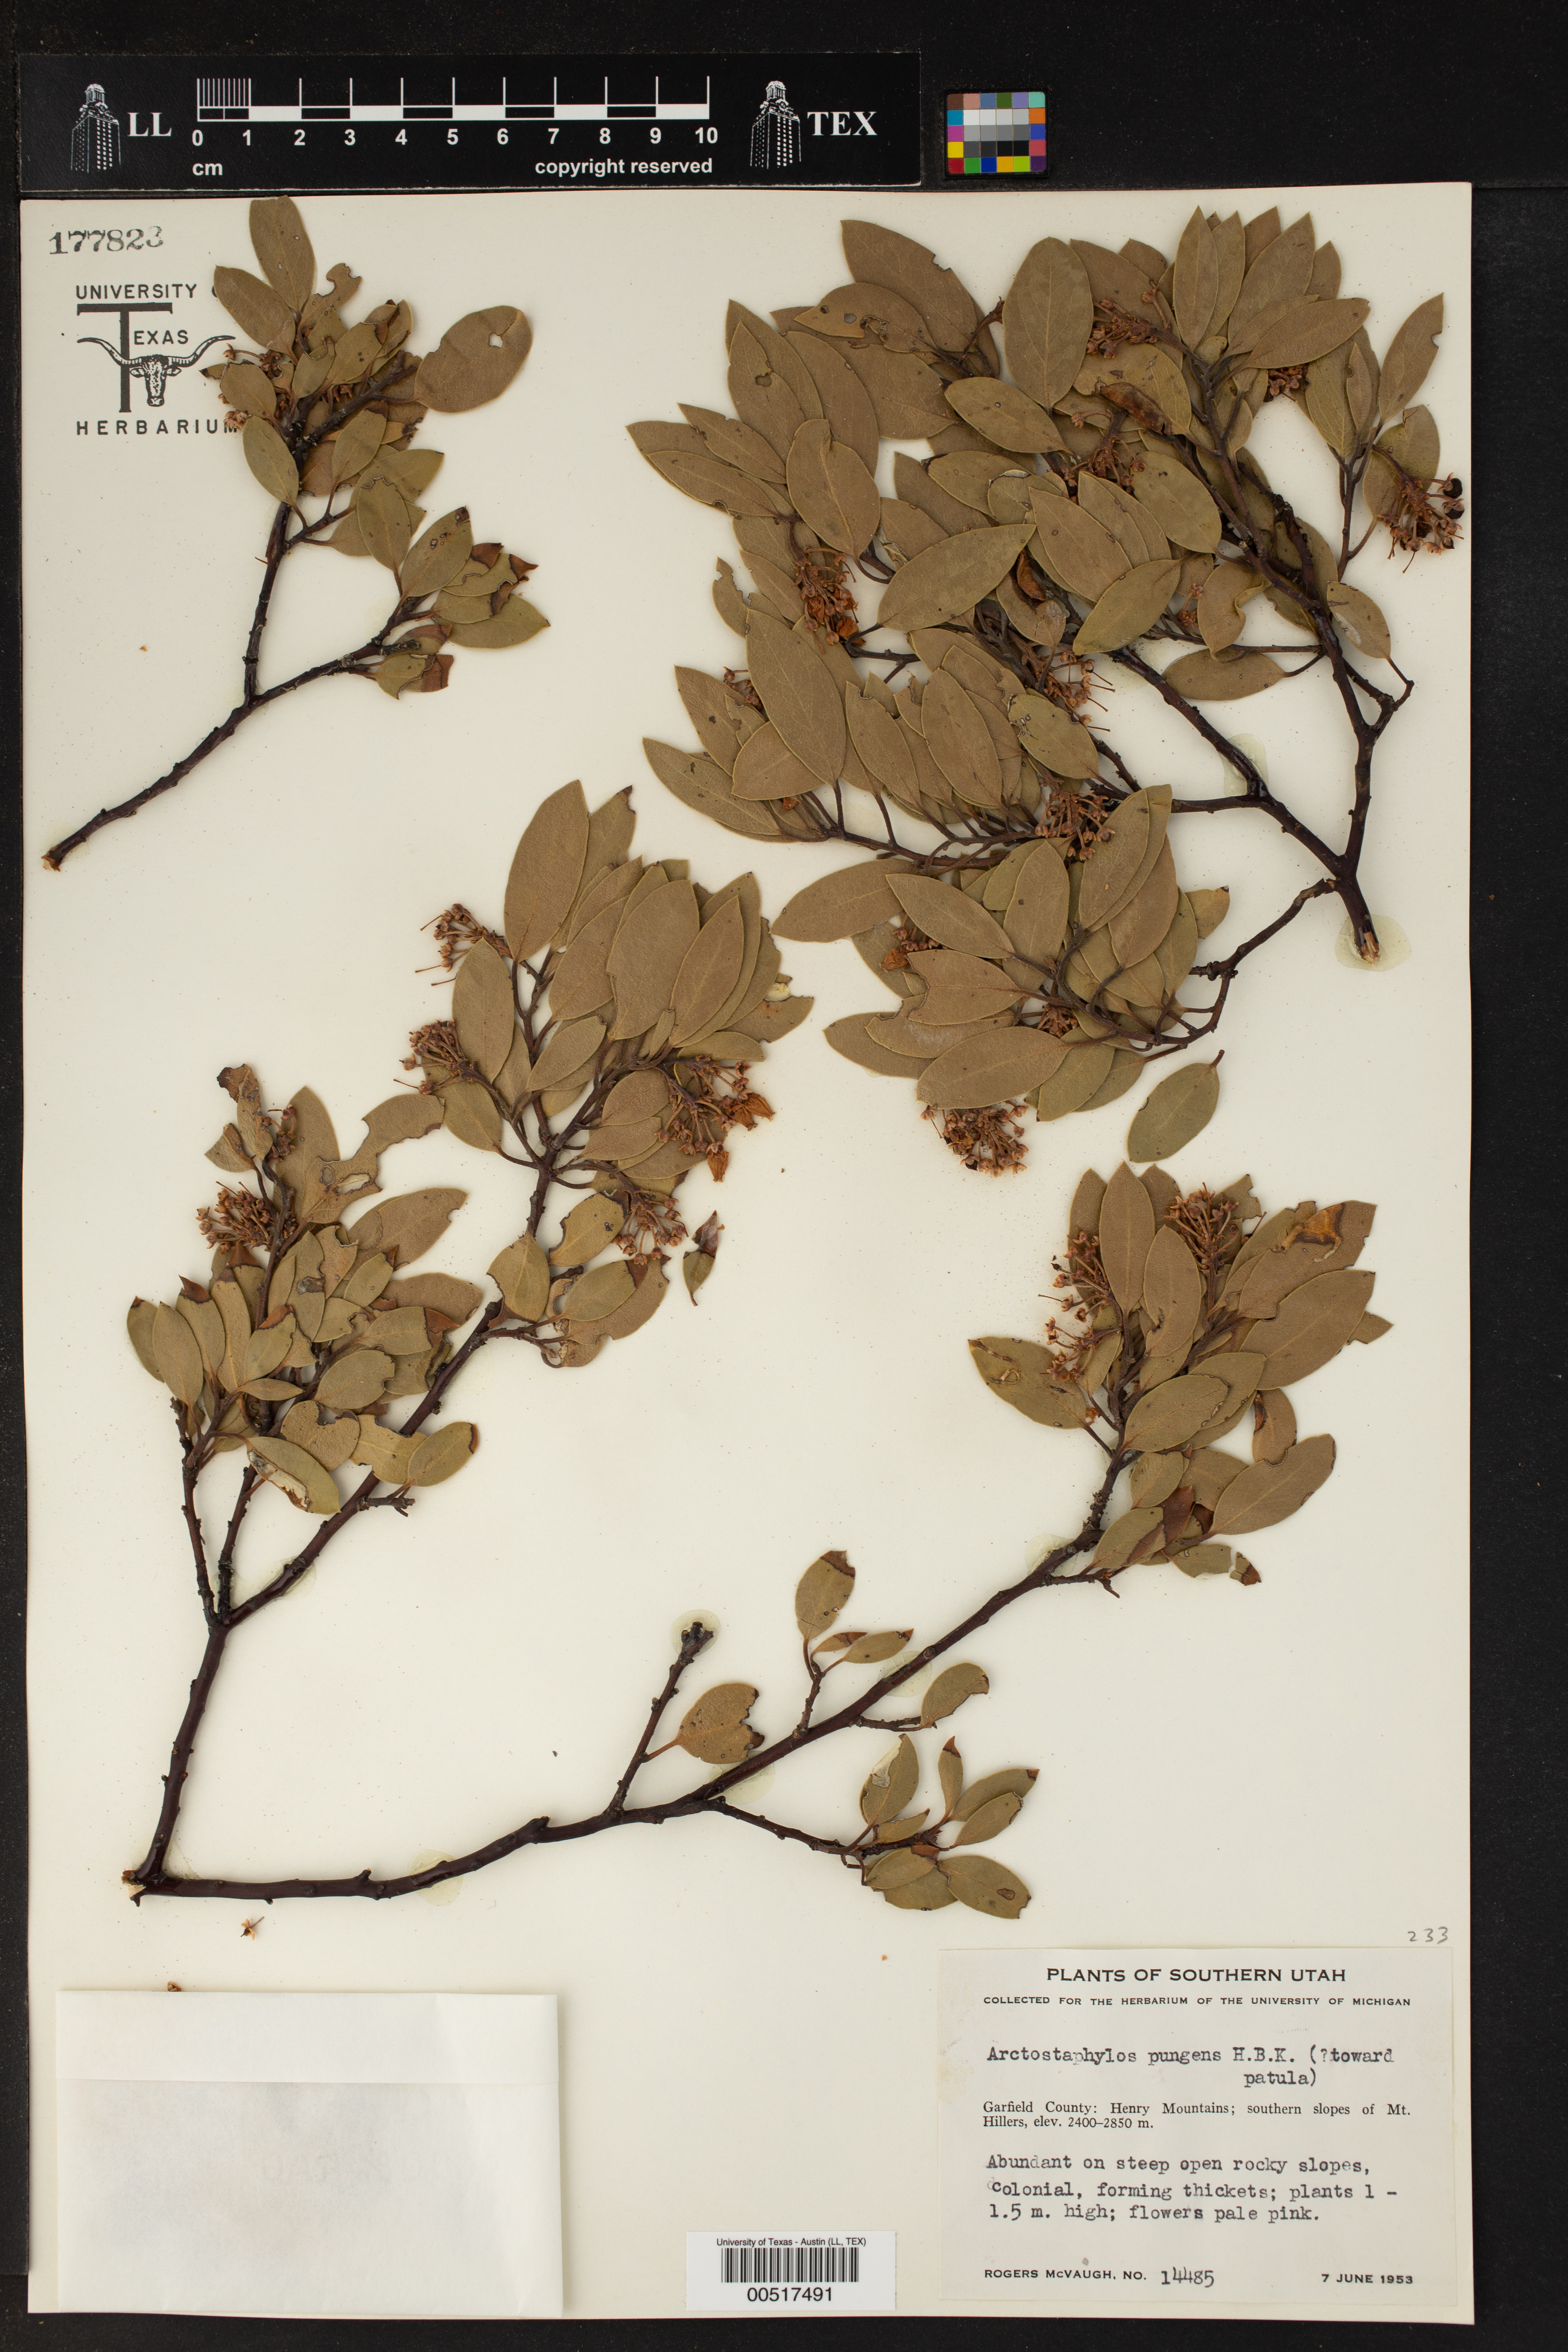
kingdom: Plantae
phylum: Tracheophyta
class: Magnoliopsida
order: Ericales
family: Ericaceae
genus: Arctostaphylos
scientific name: Arctostaphylos pungens
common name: Mexican manzanita
